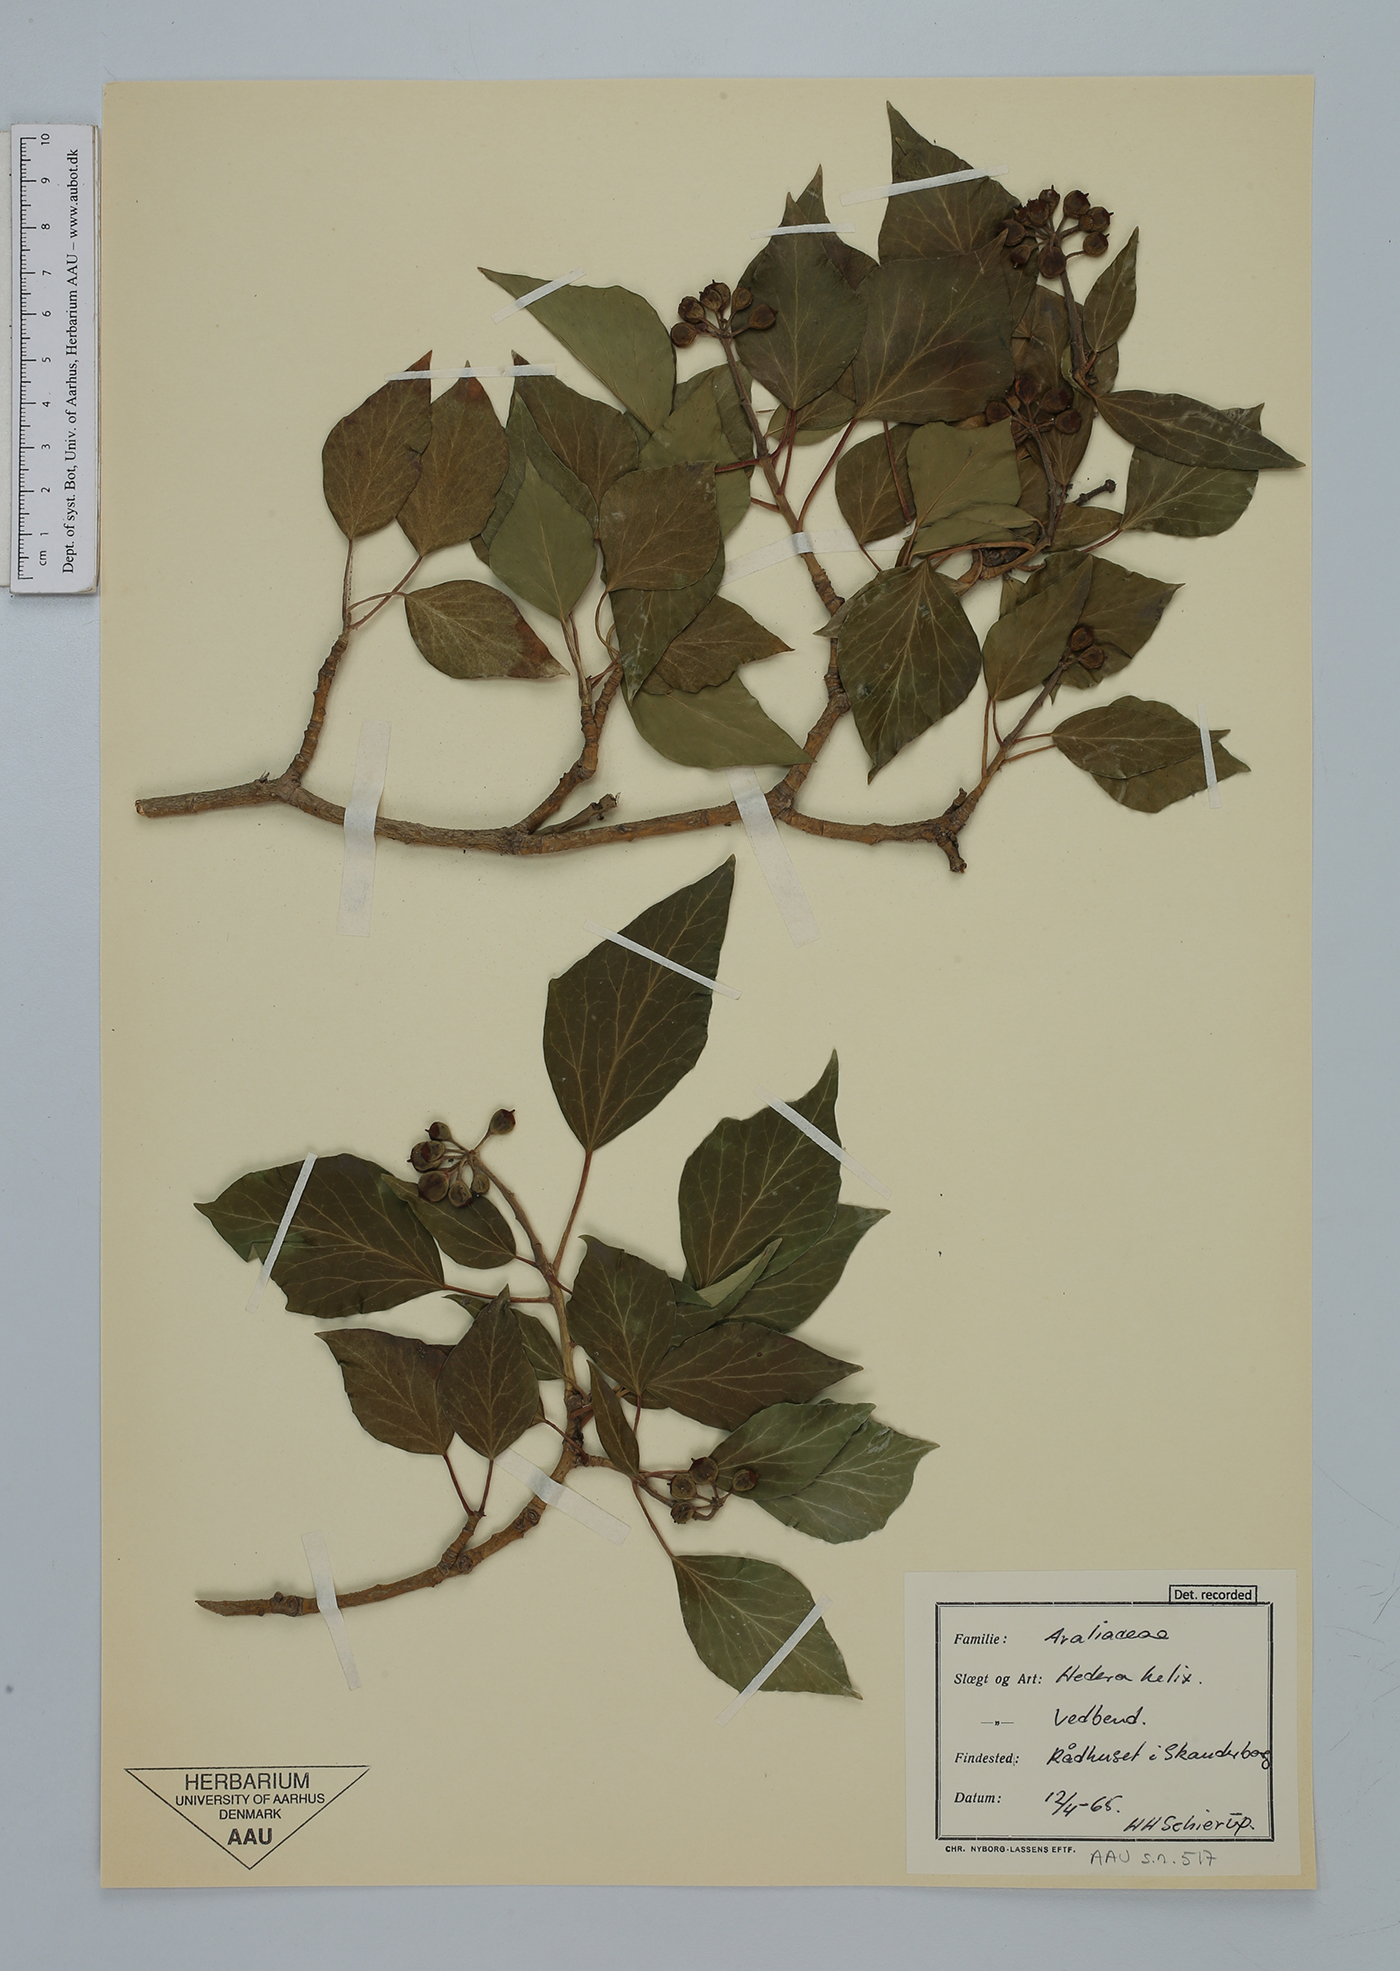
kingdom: Plantae
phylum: Tracheophyta
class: Magnoliopsida
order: Apiales
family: Araliaceae
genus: Hedera
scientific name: Hedera helix
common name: Ivy
